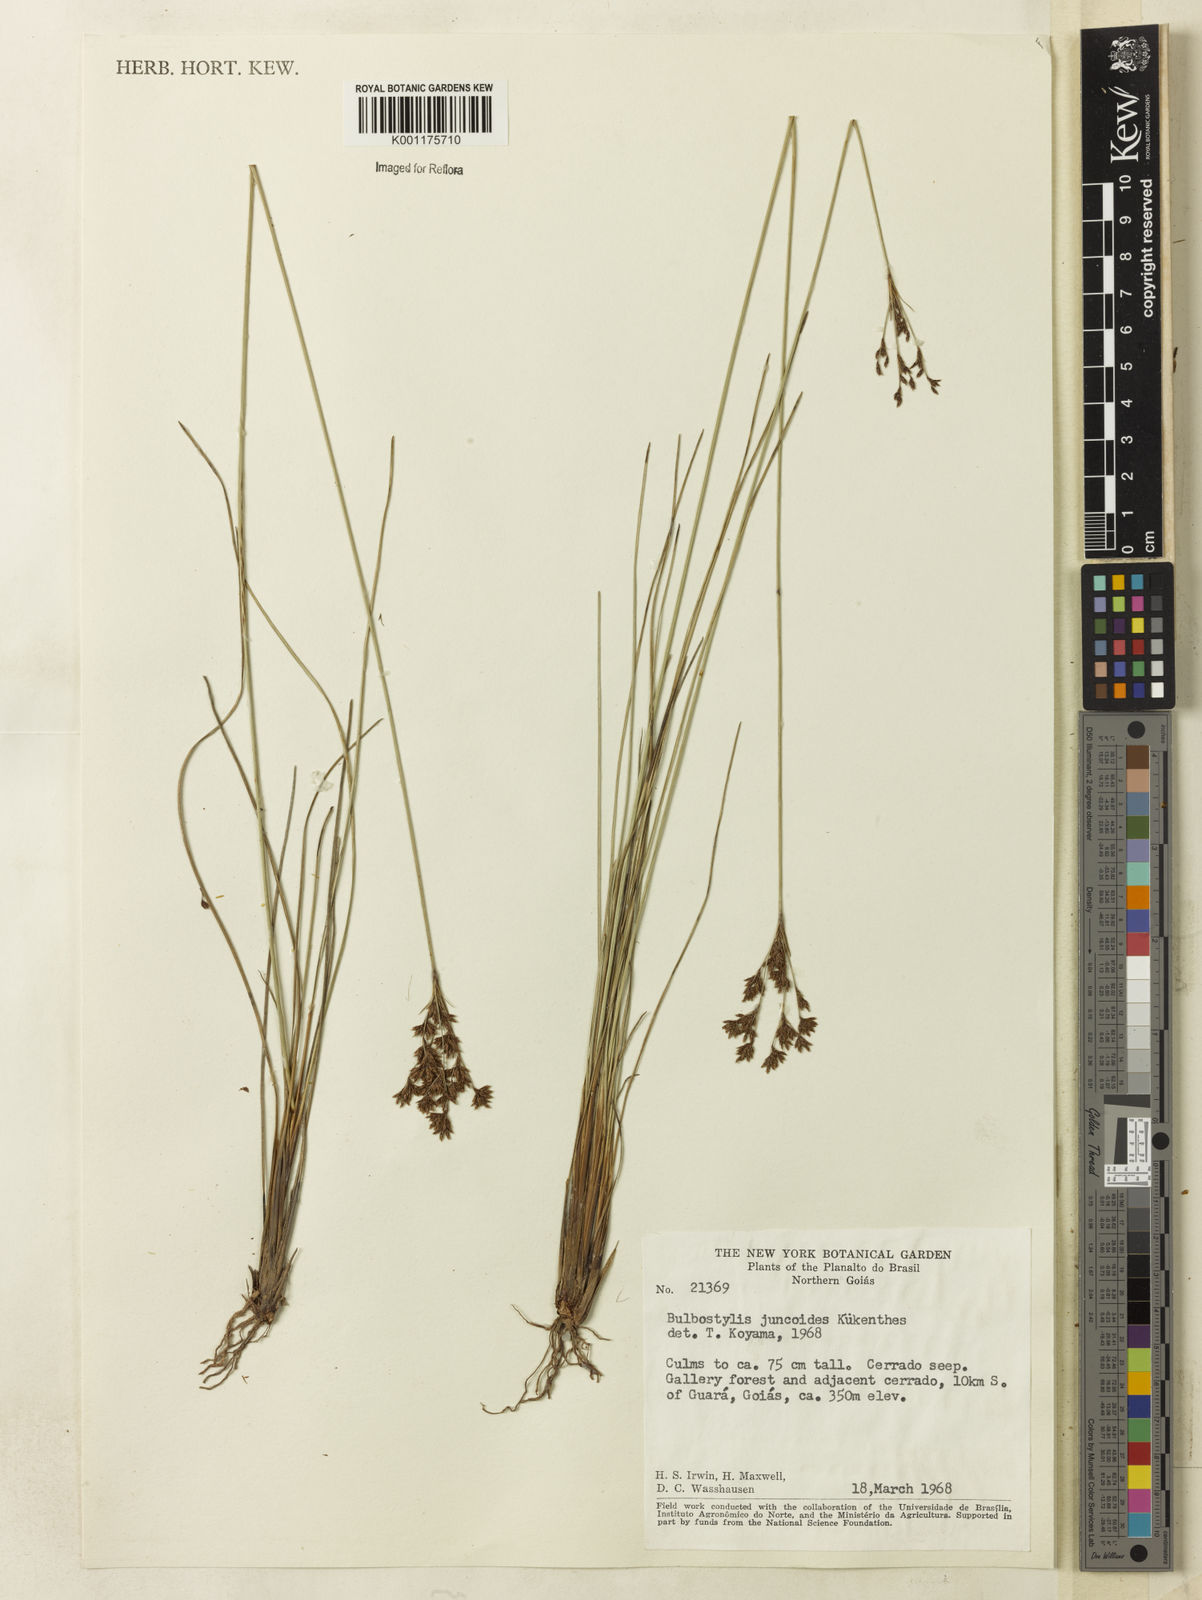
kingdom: Plantae
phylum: Tracheophyta
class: Liliopsida
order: Poales
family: Cyperaceae
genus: Bulbostylis
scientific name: Bulbostylis junciformis
